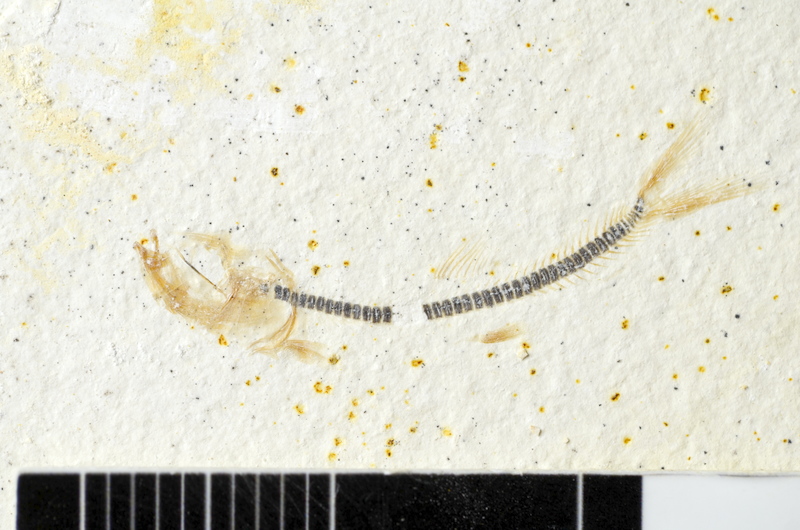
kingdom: Animalia
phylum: Chordata
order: Salmoniformes
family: Orthogonikleithridae
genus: Orthogonikleithrus
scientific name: Orthogonikleithrus hoelli
